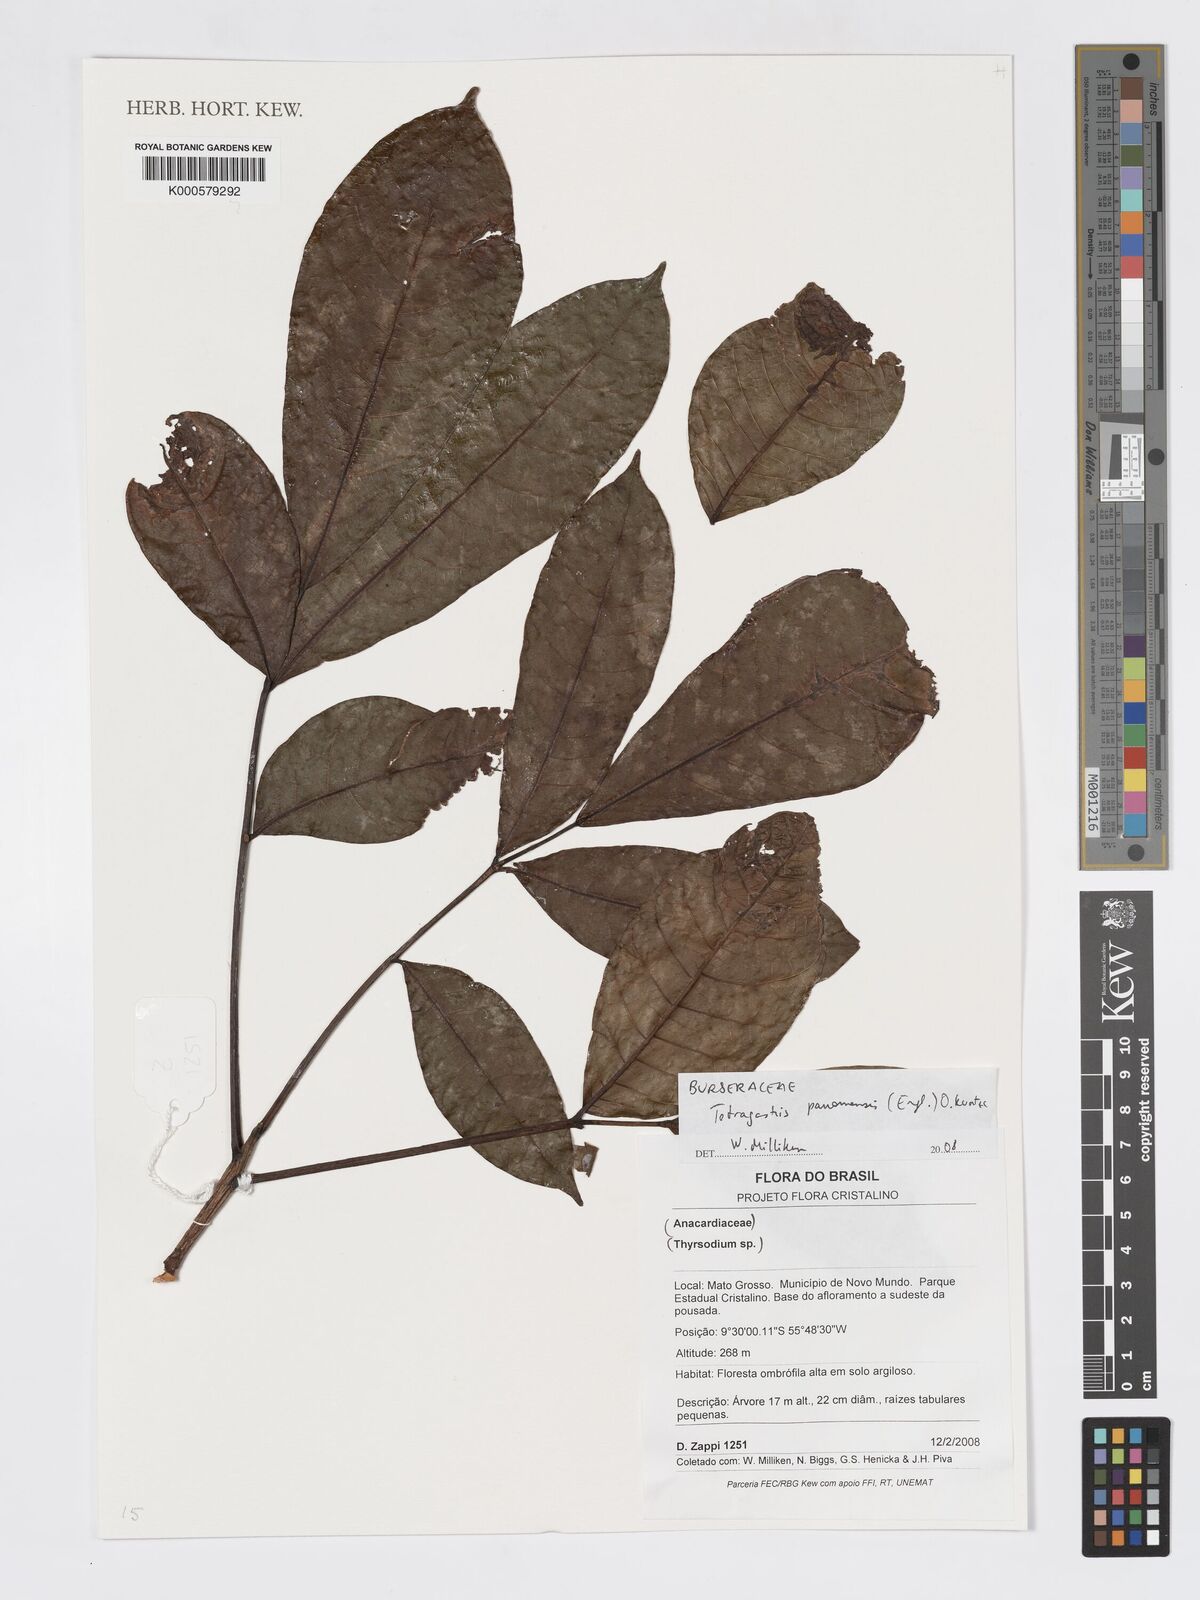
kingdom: Plantae
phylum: Tracheophyta
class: Magnoliopsida
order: Sapindales
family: Burseraceae
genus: Tetragastris
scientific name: Tetragastris panamensis
